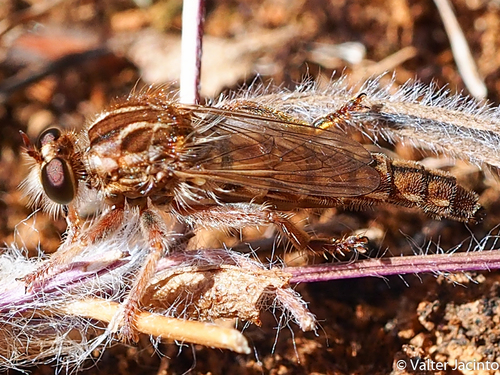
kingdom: Animalia
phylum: Arthropoda
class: Insecta
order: Diptera
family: Asilidae
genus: Habropogon
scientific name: Habropogon
